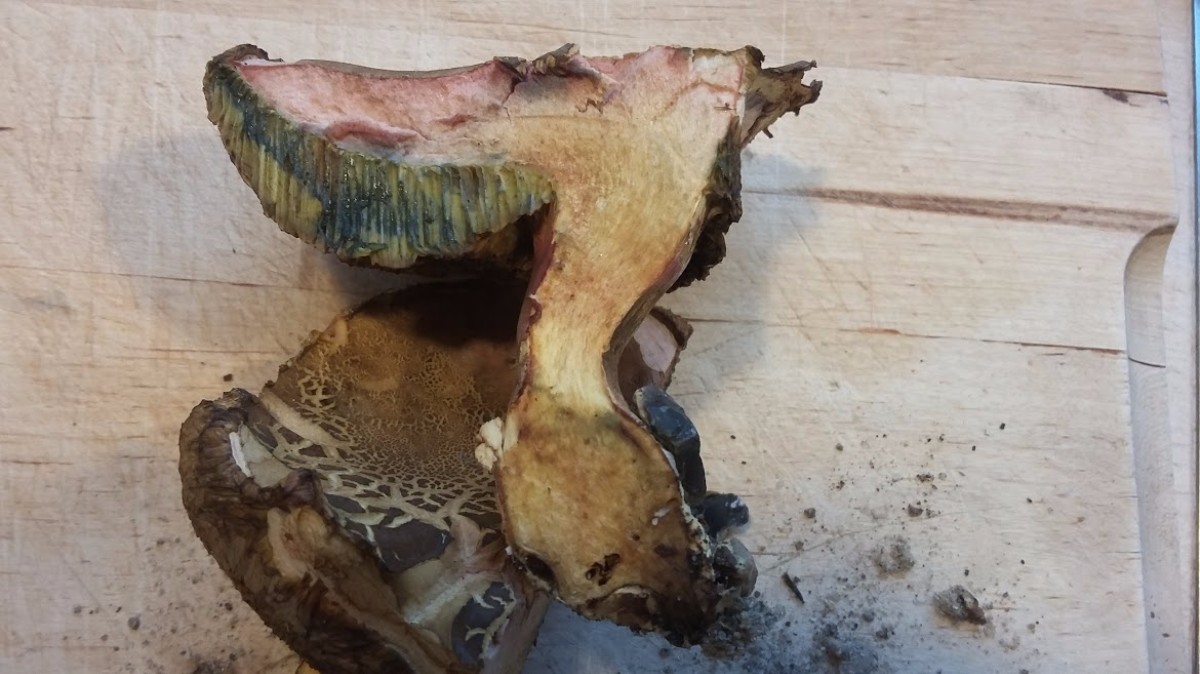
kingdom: Fungi
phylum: Basidiomycota
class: Agaricomycetes
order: Boletales
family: Boletaceae
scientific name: Boletaceae
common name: rørhatfamilien
